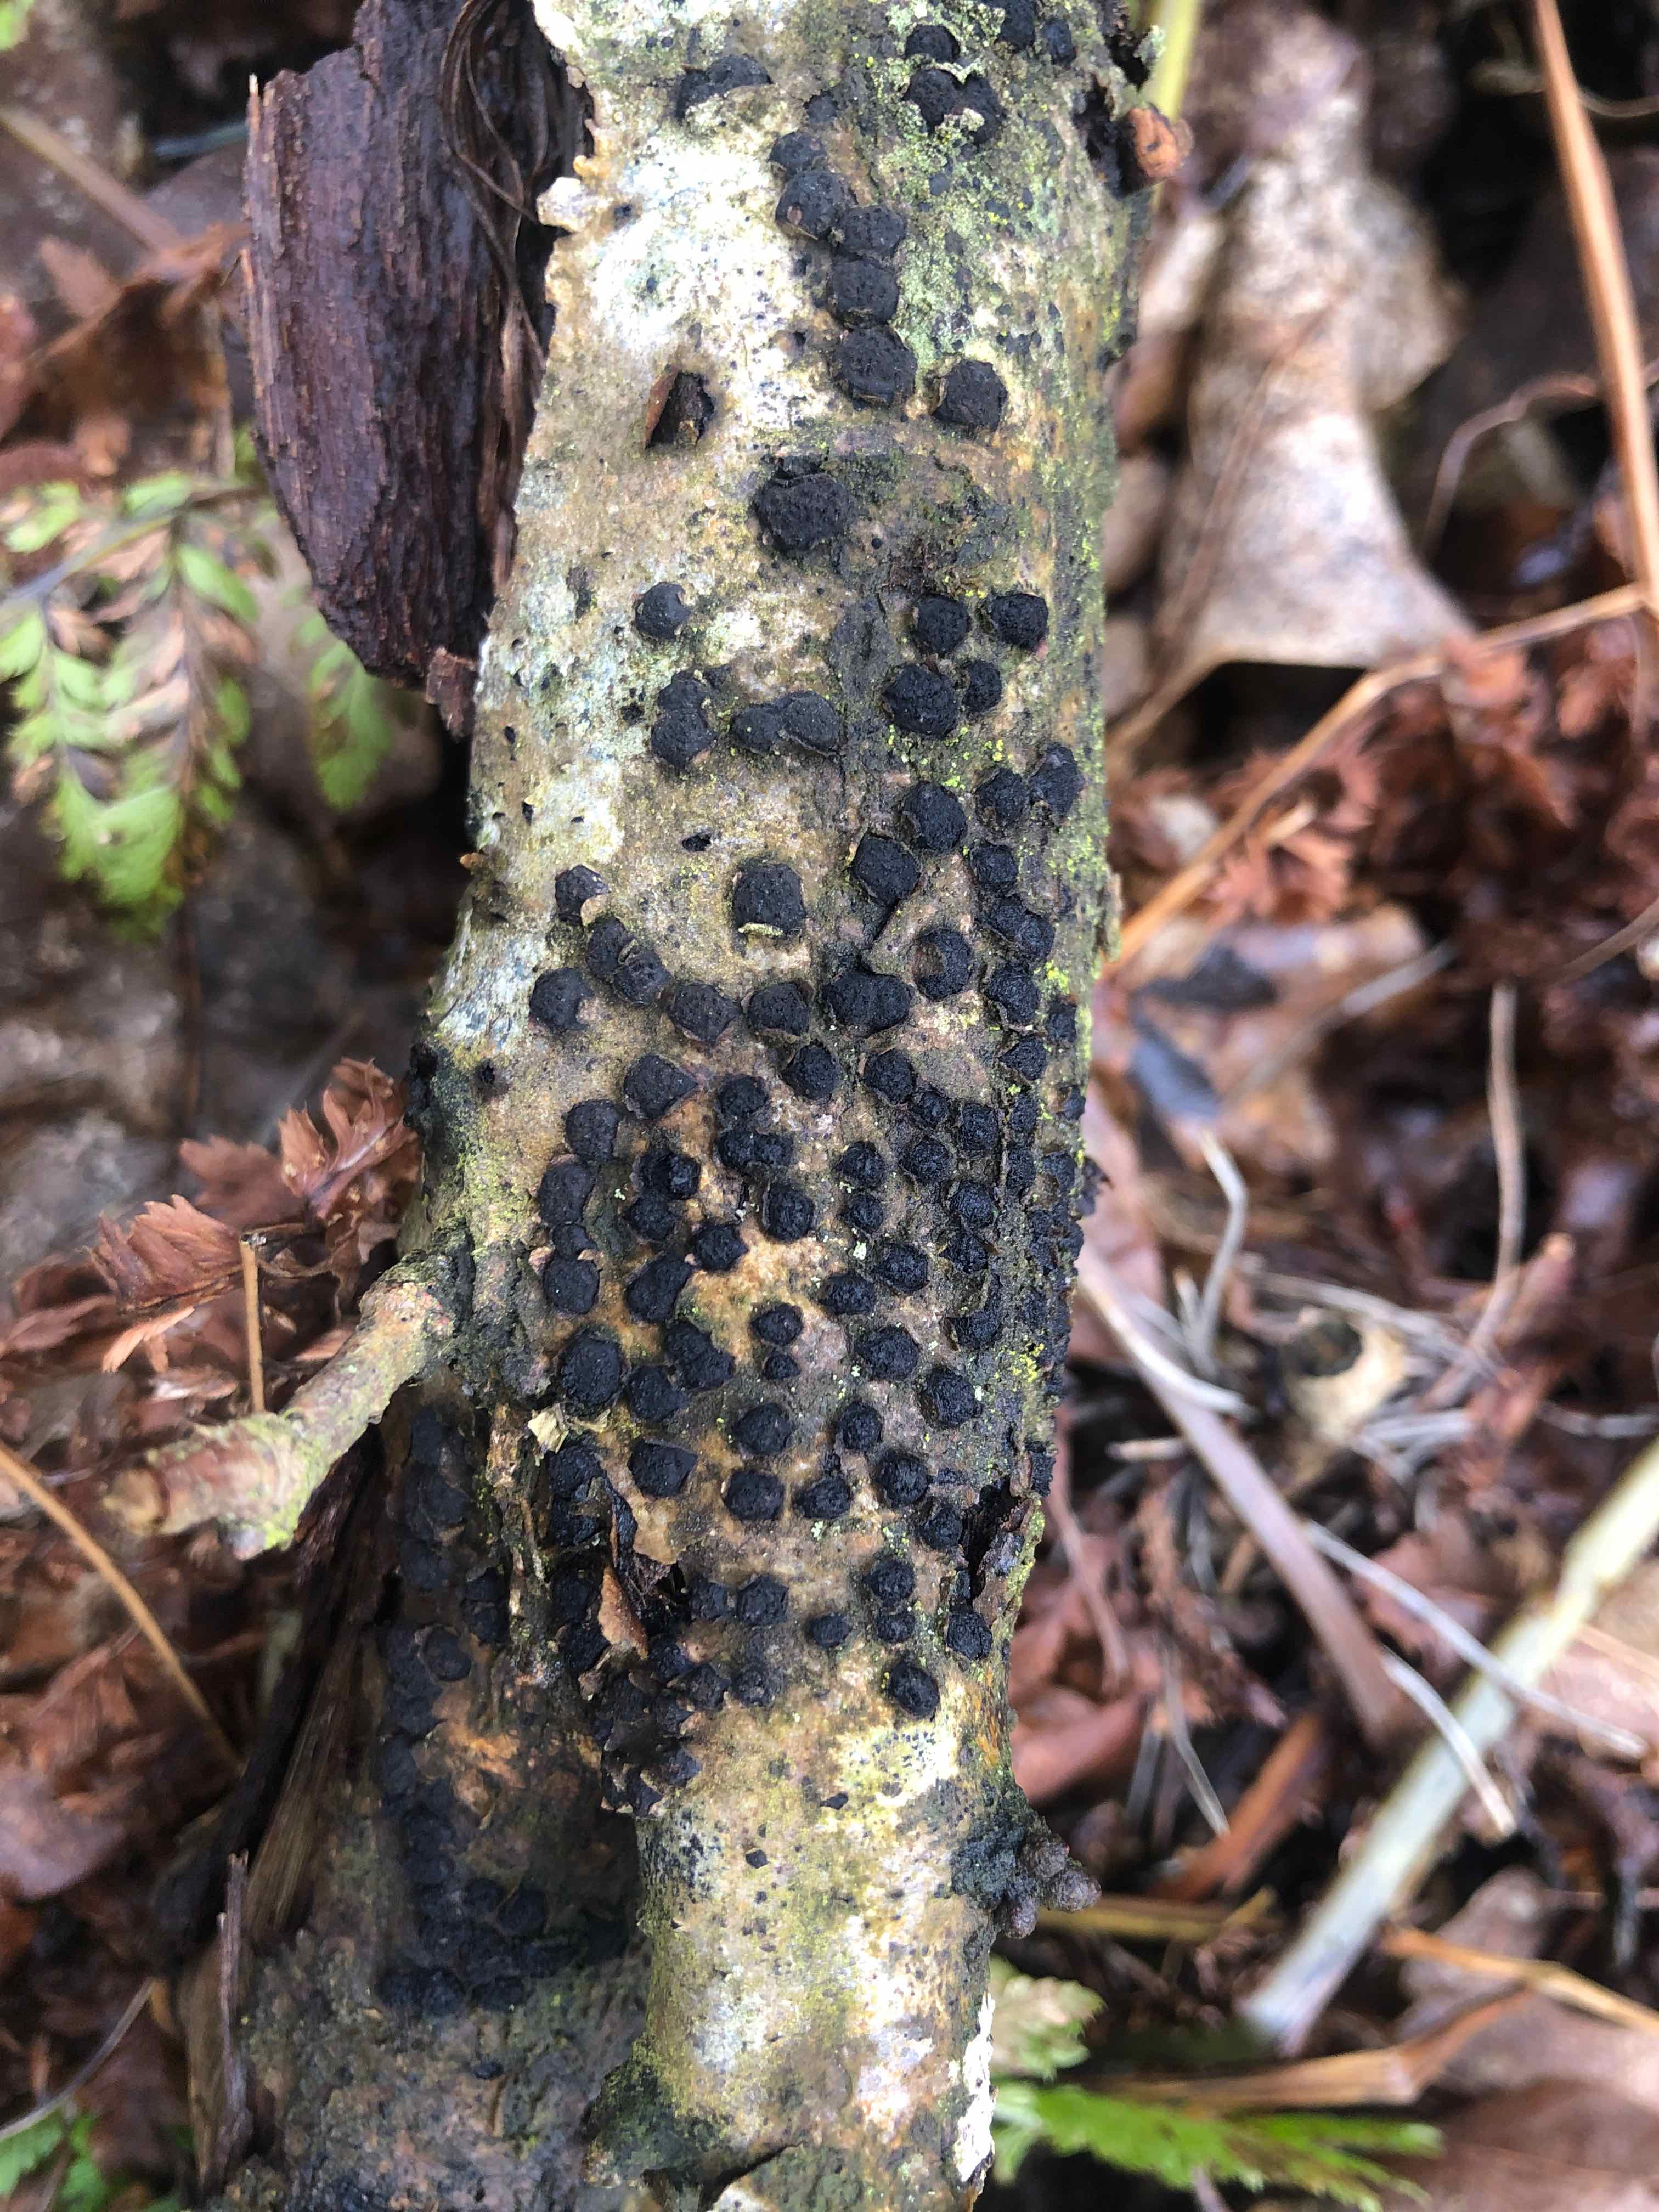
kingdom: Fungi
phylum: Ascomycota
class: Sordariomycetes
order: Xylariales
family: Diatrypaceae
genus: Diatrypella
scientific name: Diatrypella quercina
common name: ege-kulskorpe
